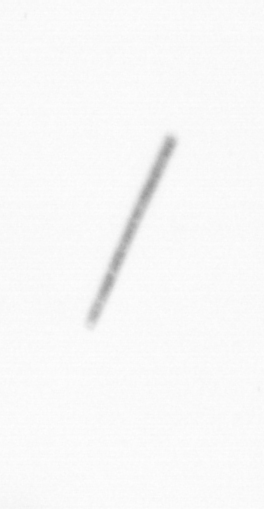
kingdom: Chromista
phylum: Ochrophyta
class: Bacillariophyceae
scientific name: Bacillariophyceae
